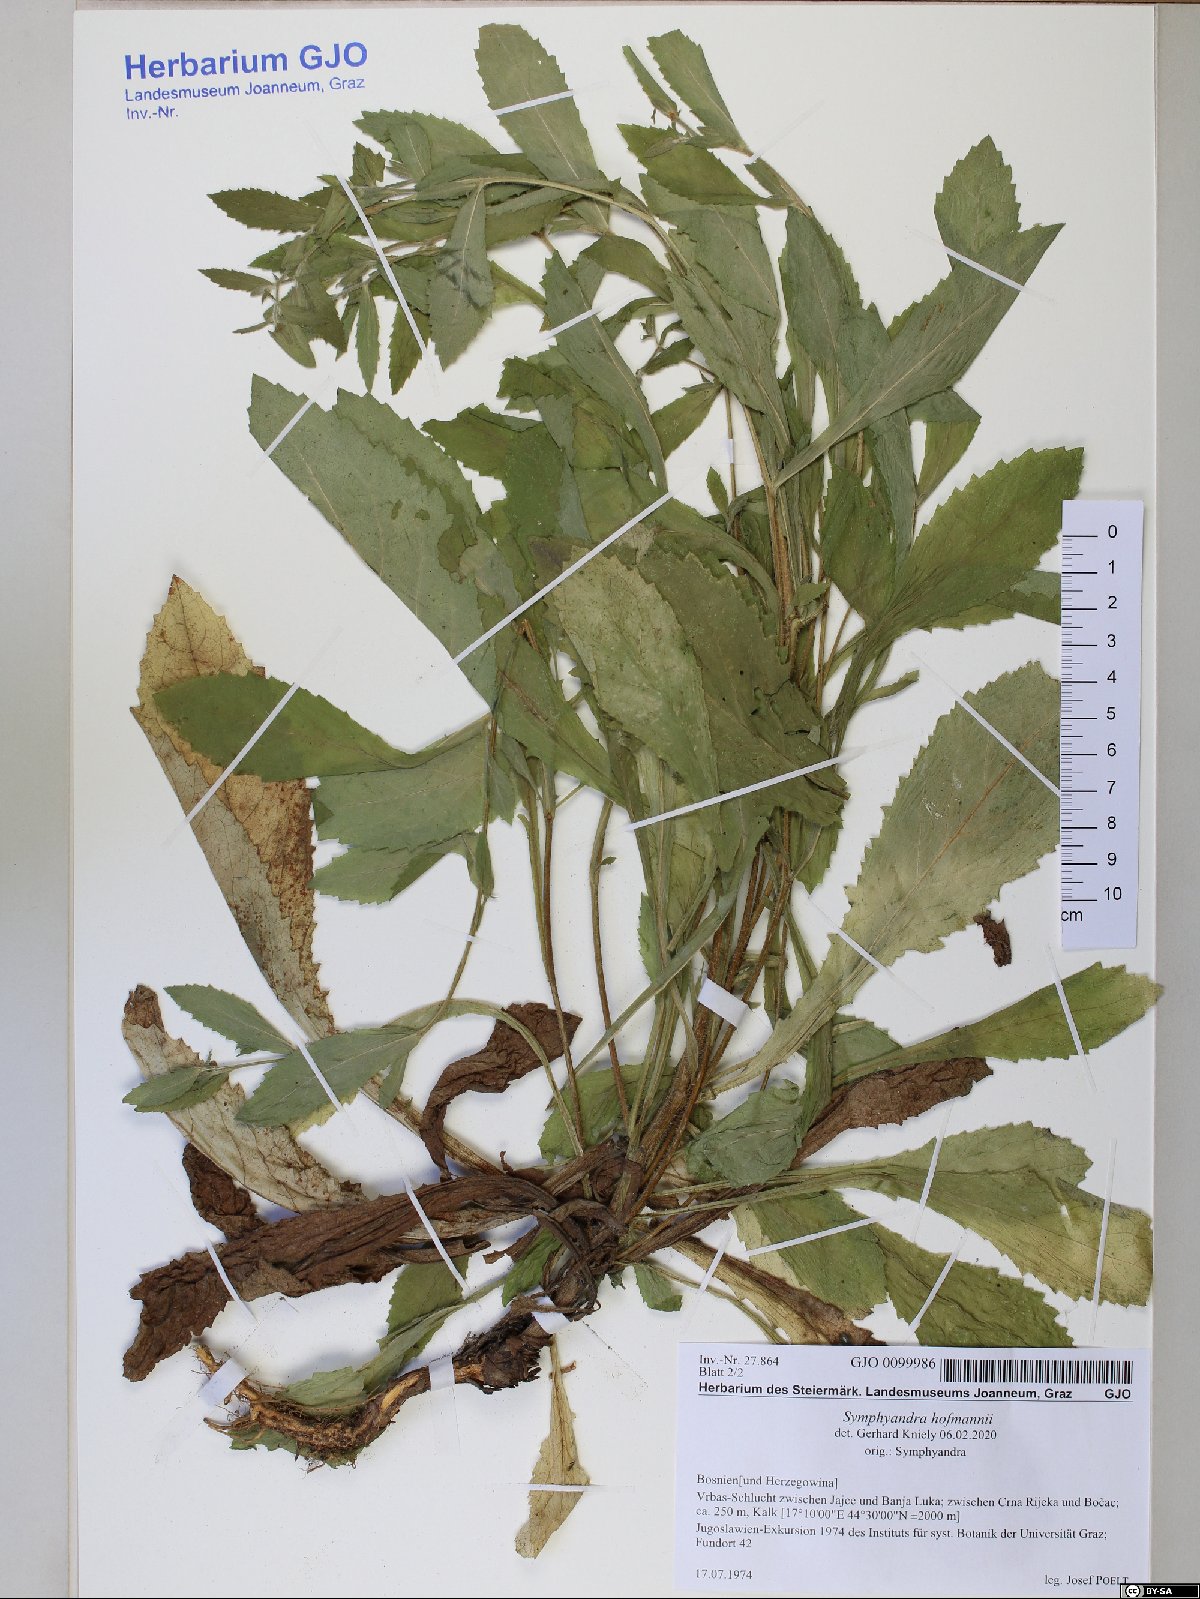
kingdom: Plantae
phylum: Tracheophyta
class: Magnoliopsida
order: Asterales
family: Campanulaceae
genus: Campanula
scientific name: Campanula hofmannii
